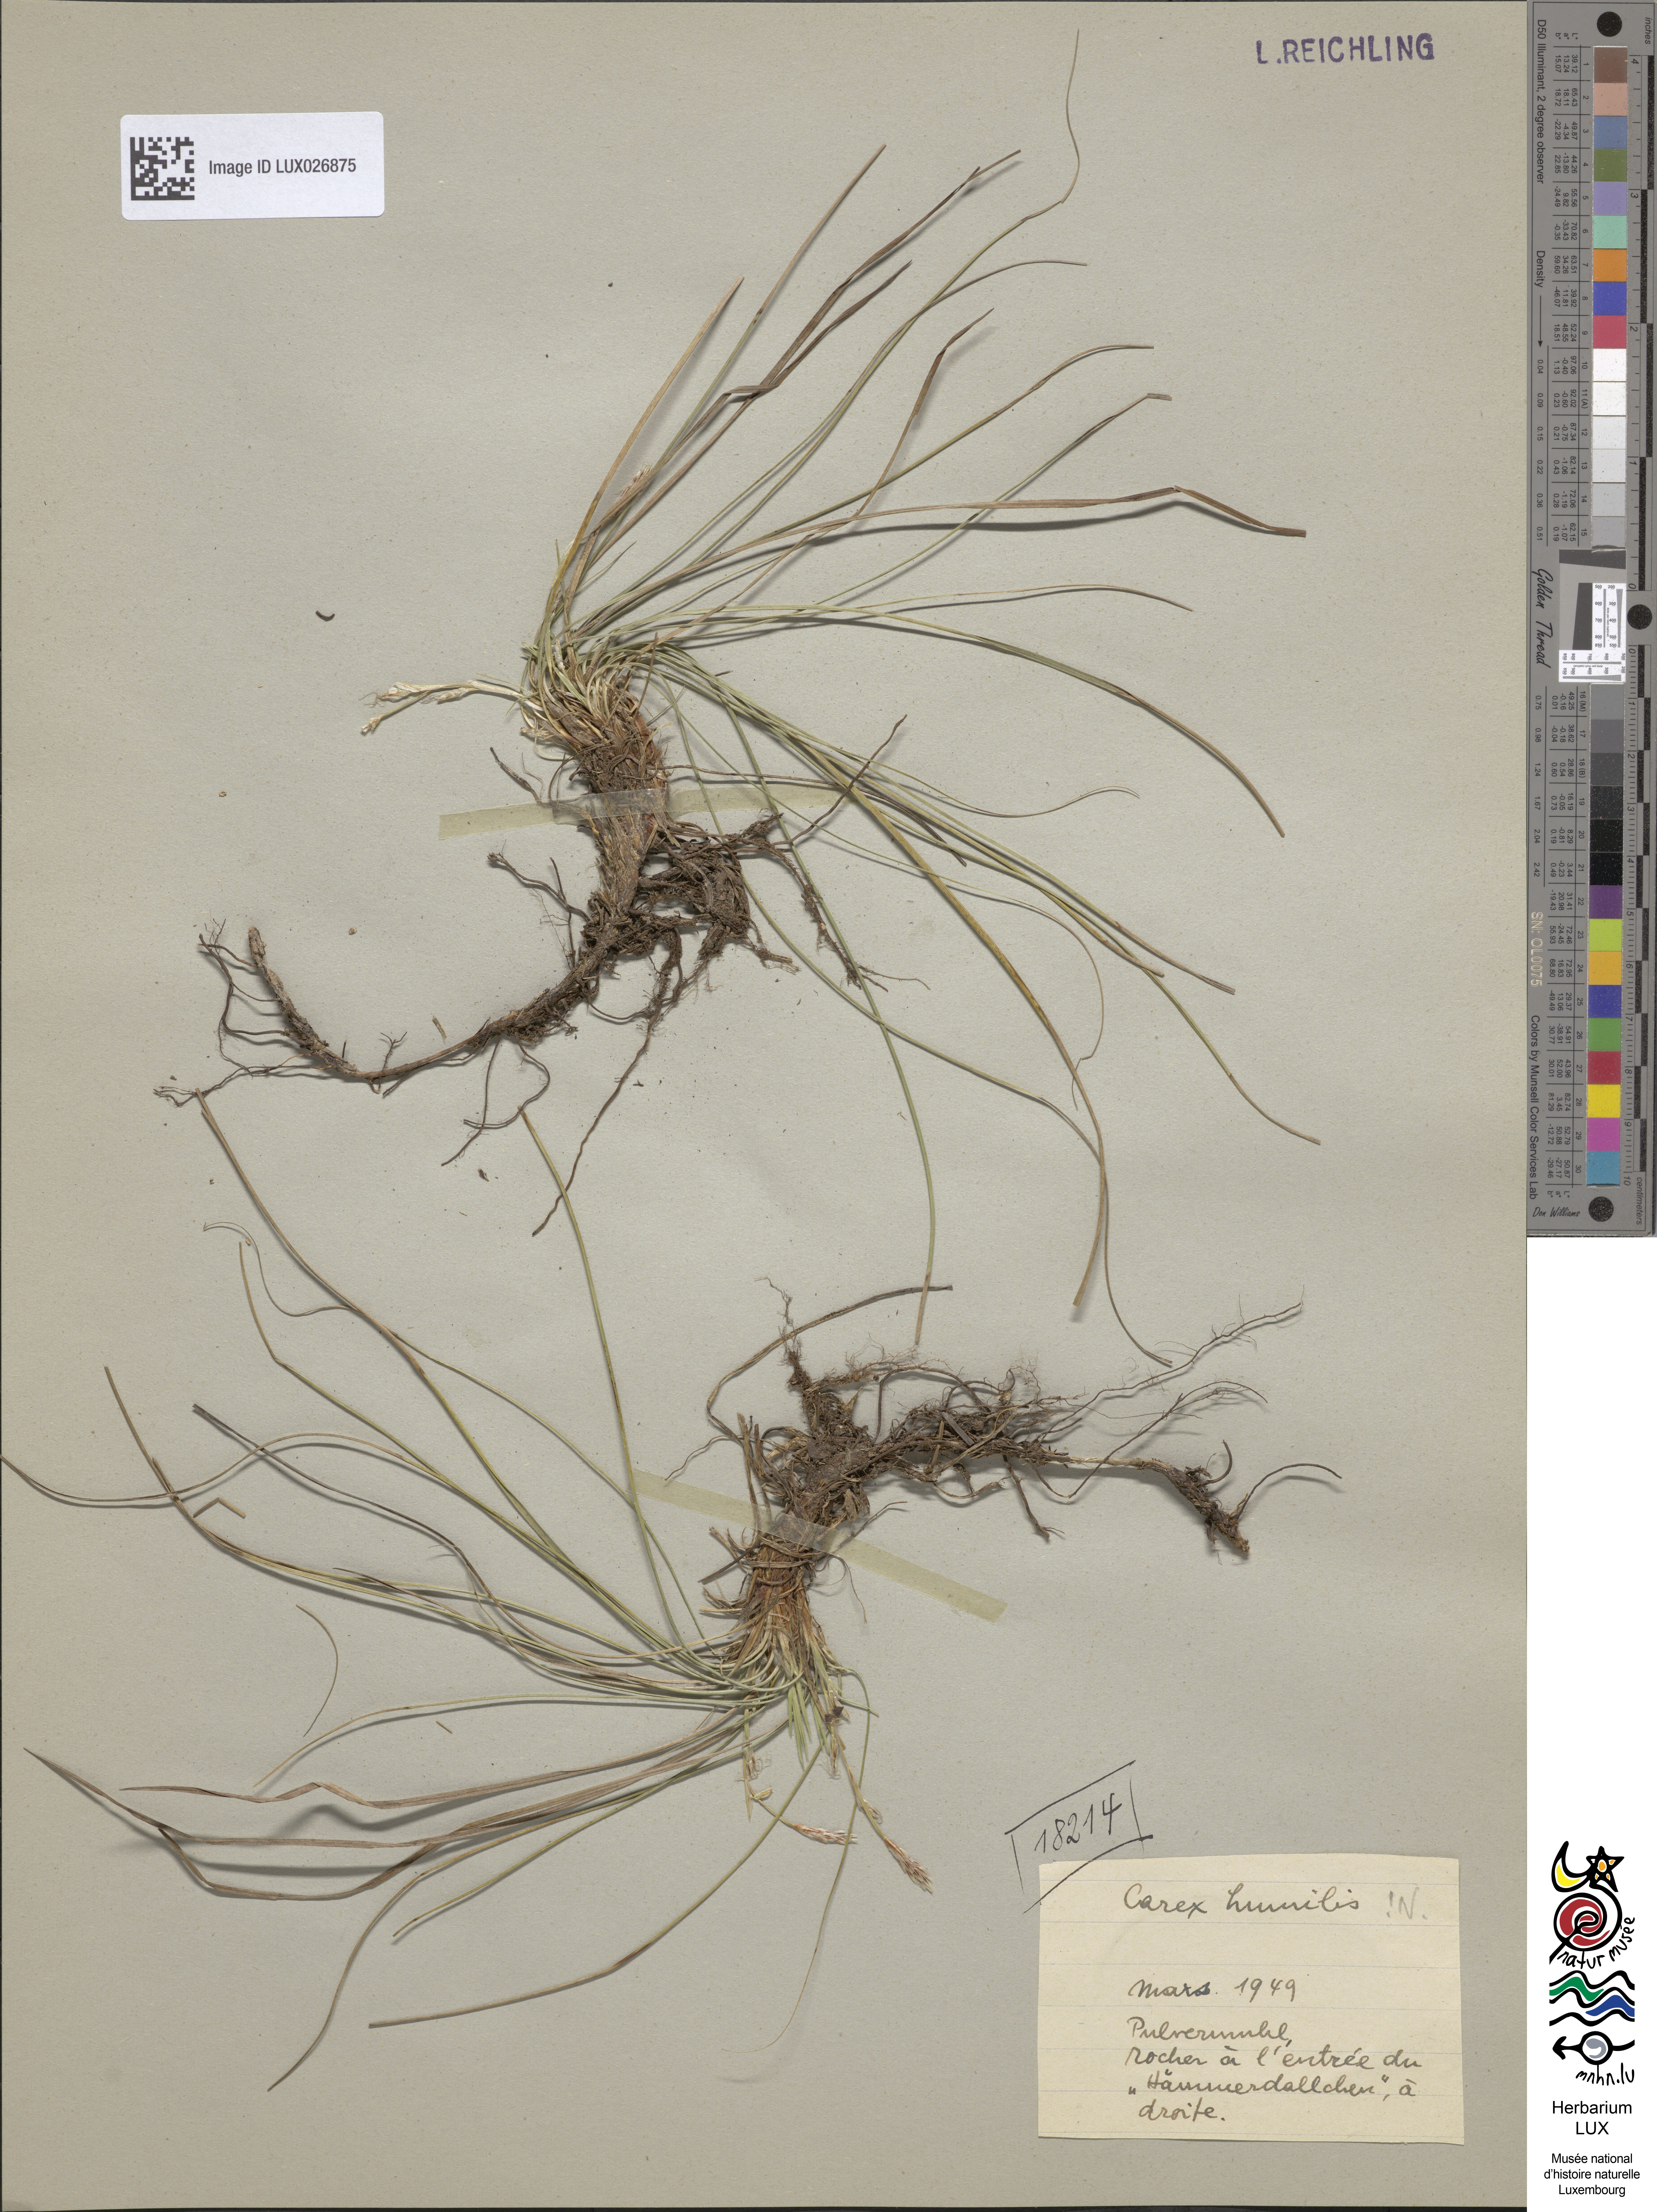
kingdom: Plantae
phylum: Tracheophyta
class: Liliopsida
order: Poales
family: Cyperaceae
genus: Carex
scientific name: Carex humilis
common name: Dwarf sedge
